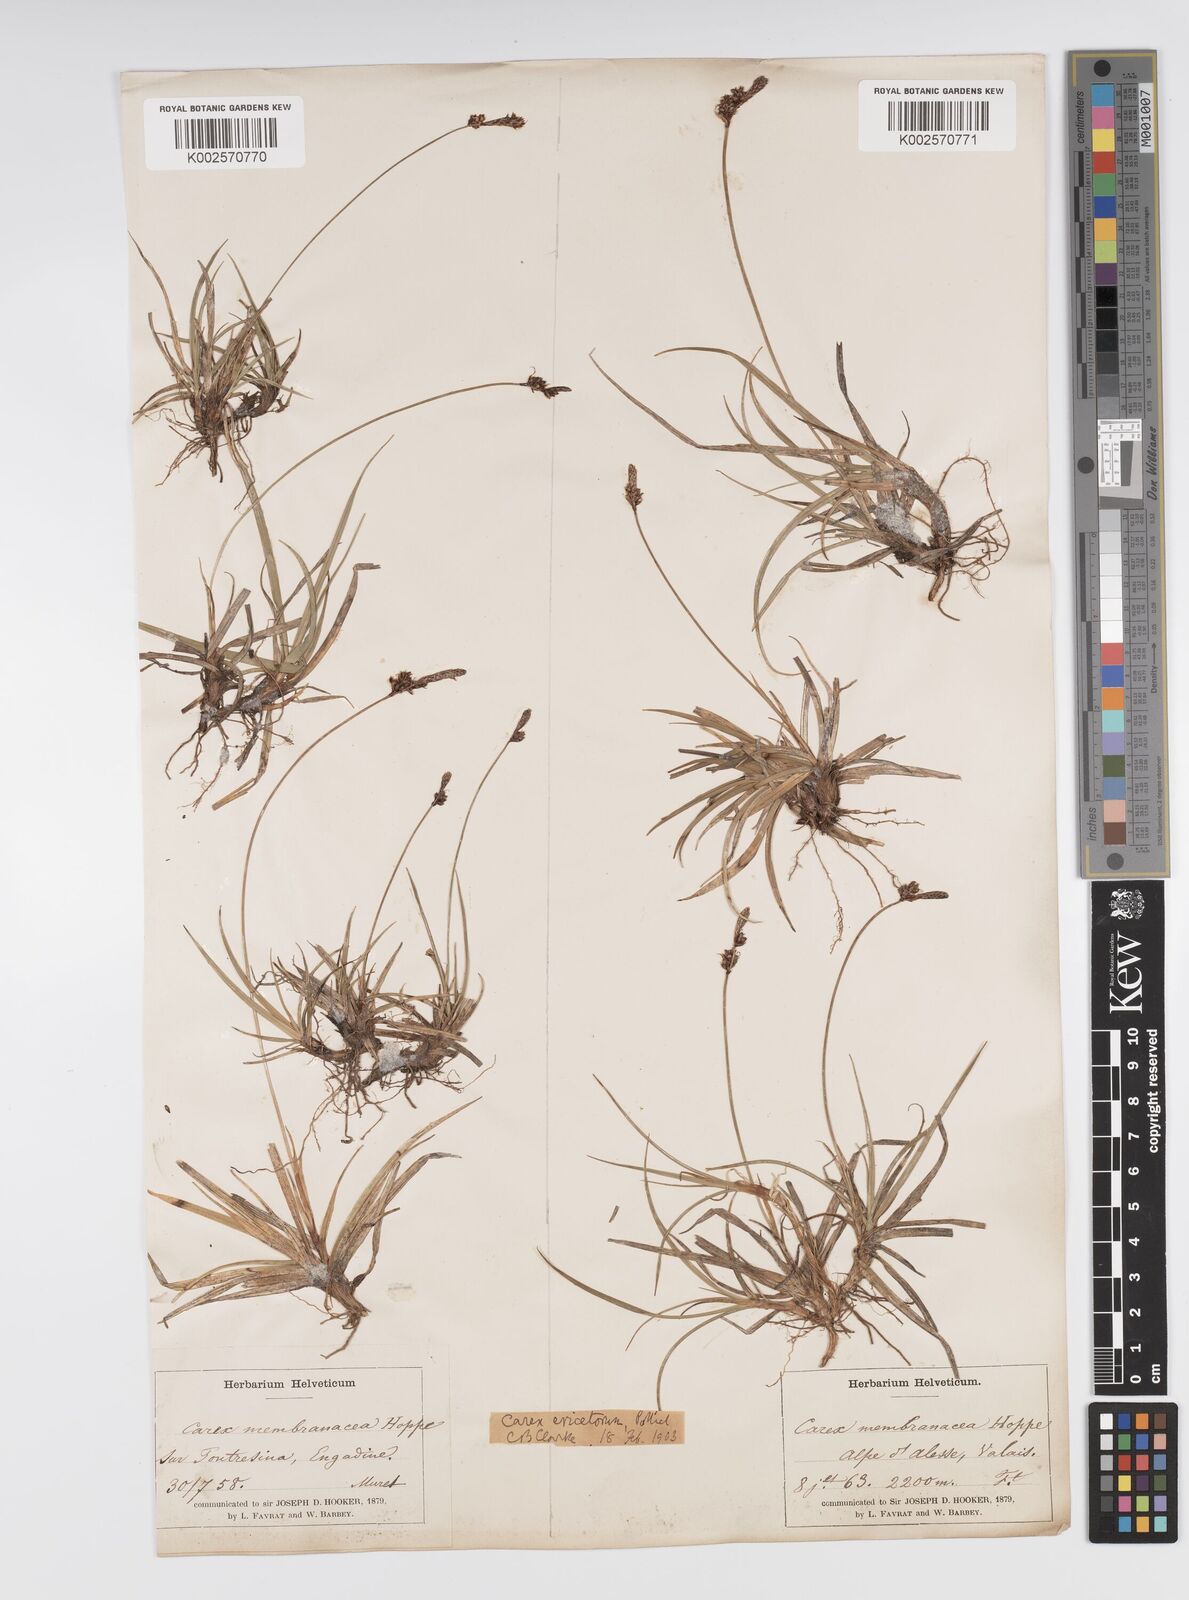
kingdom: Plantae
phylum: Tracheophyta
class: Liliopsida
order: Poales
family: Cyperaceae
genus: Carex
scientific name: Carex ericetorum
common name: Rare spring-sedge
